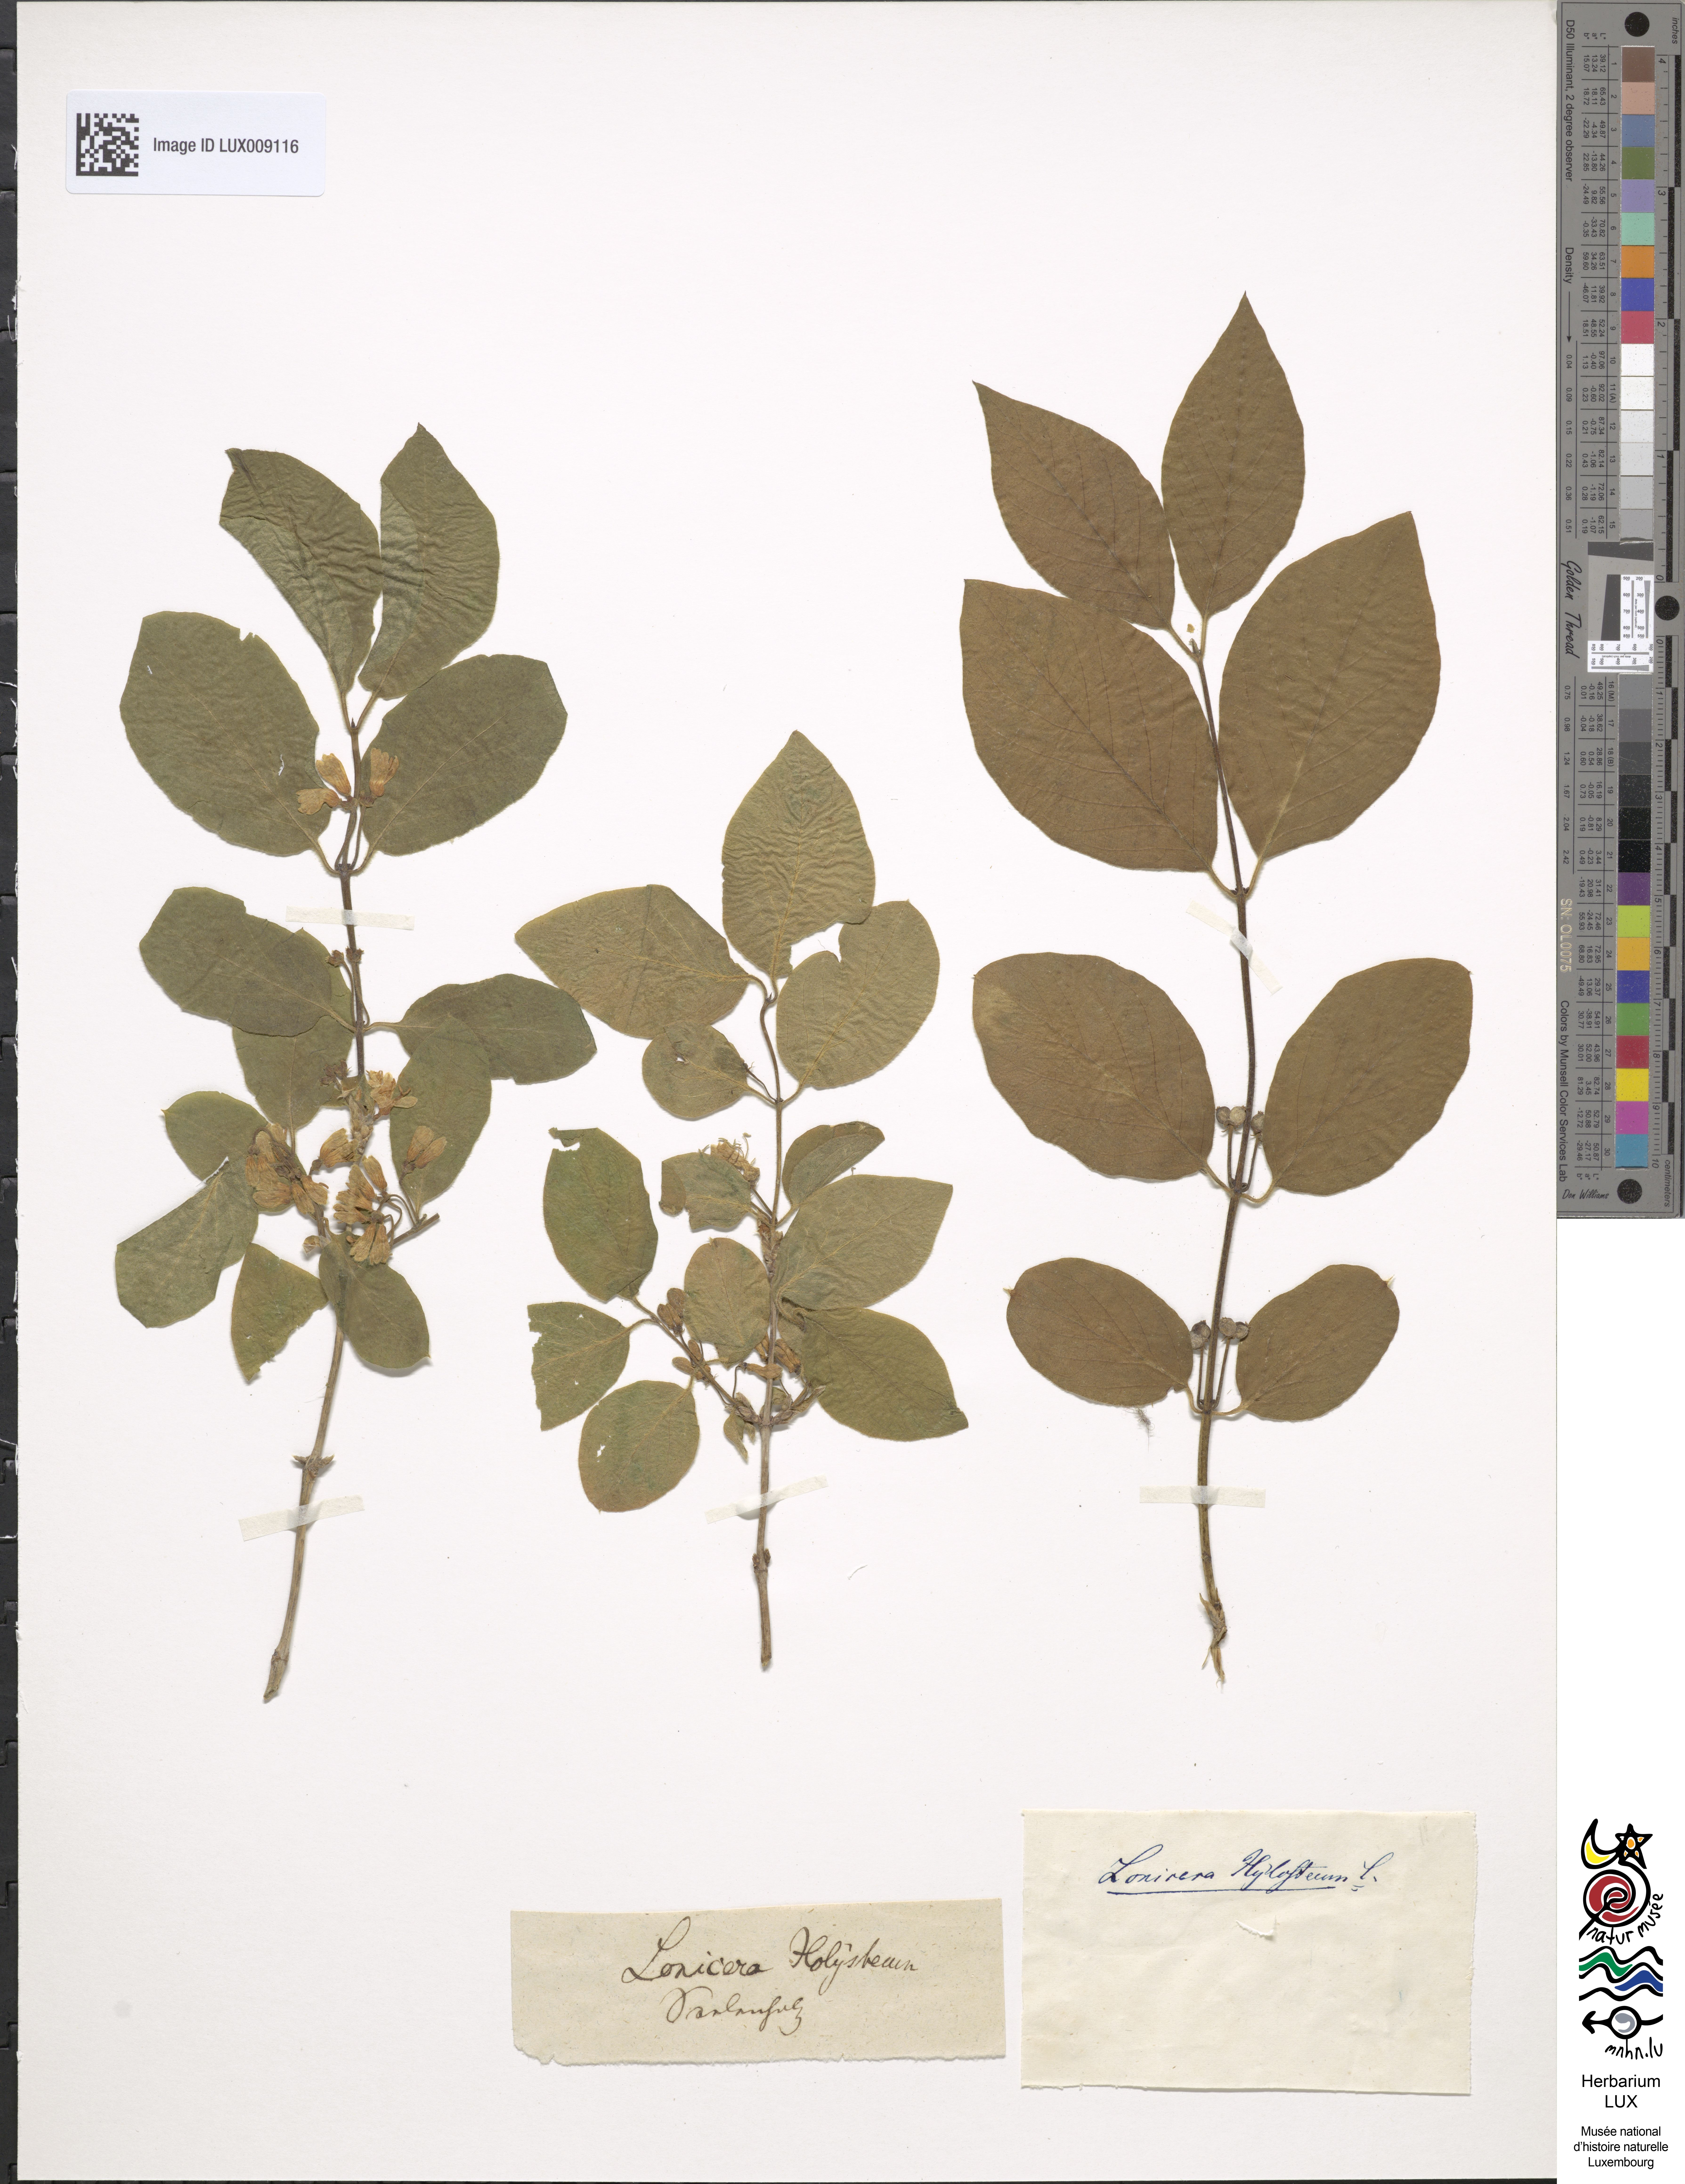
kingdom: Plantae
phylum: Tracheophyta
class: Magnoliopsida
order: Dipsacales
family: Caprifoliaceae
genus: Lonicera
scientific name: Lonicera xylosteum
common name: Fly honeysuckle
